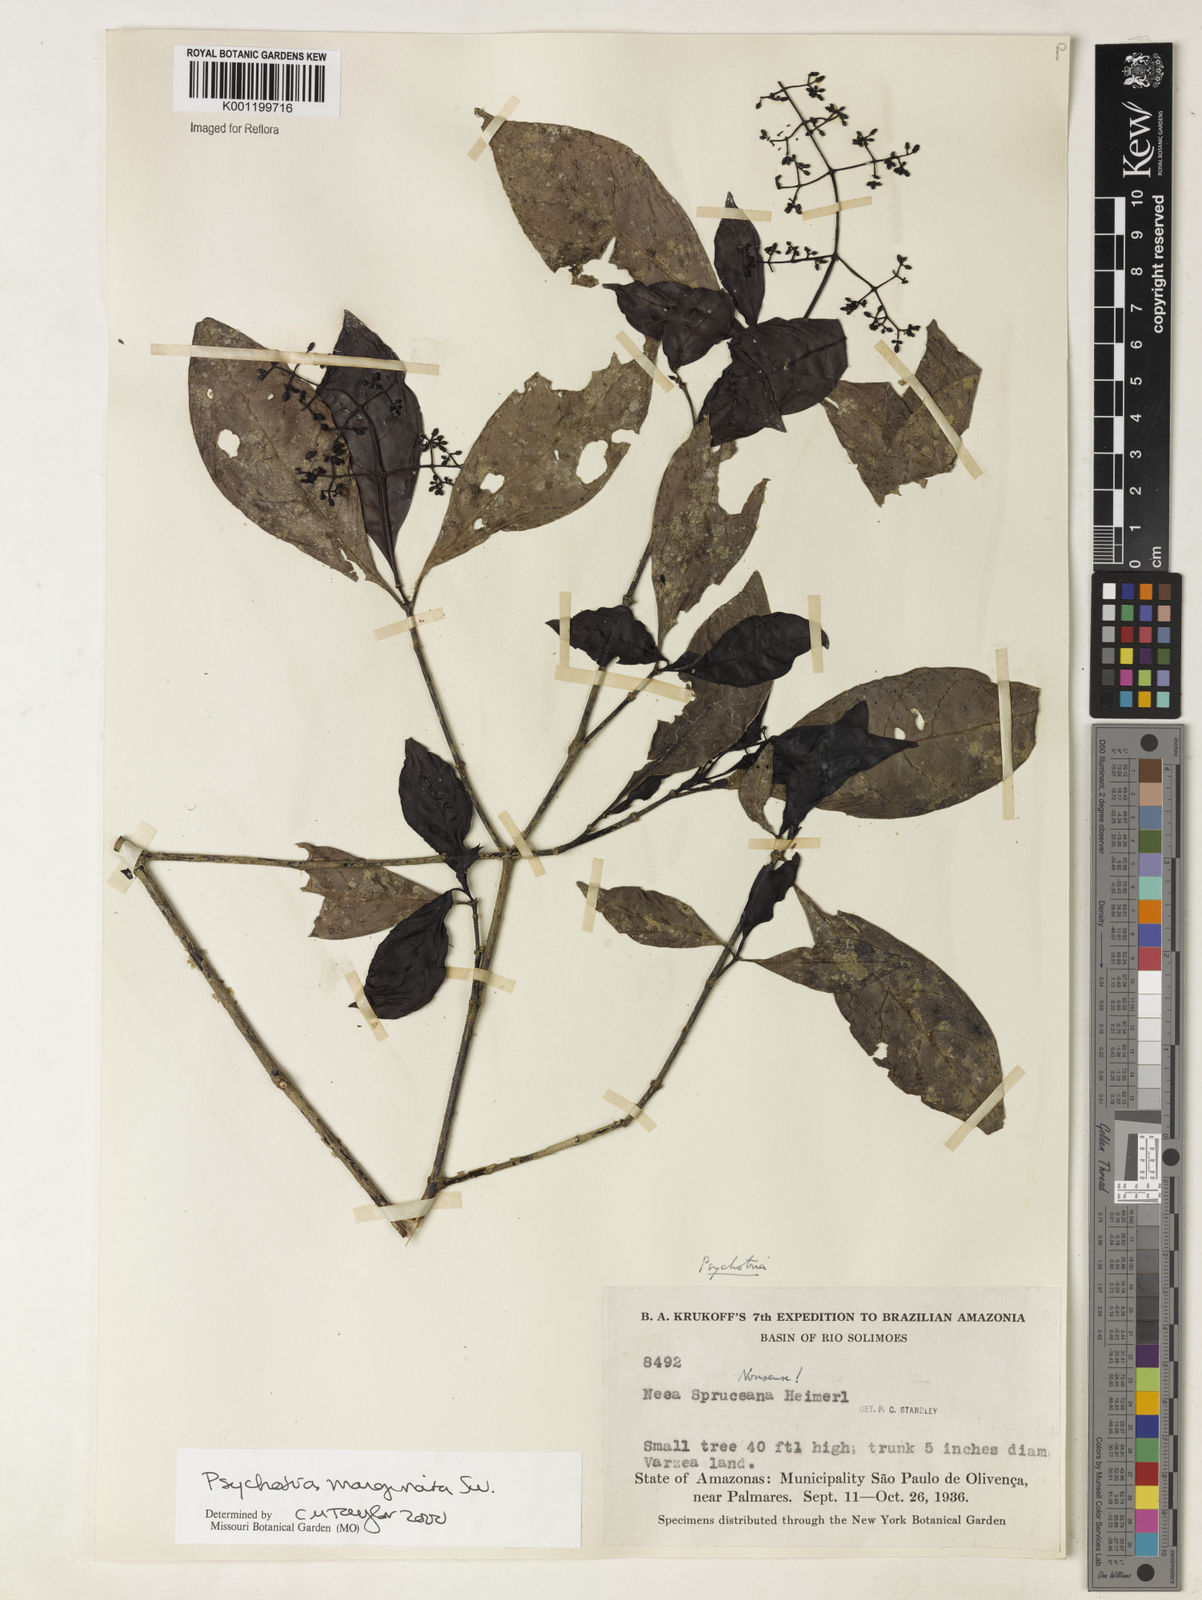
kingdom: Plantae
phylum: Tracheophyta
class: Magnoliopsida
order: Gentianales
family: Rubiaceae
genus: Psychotria
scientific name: Psychotria marginata
